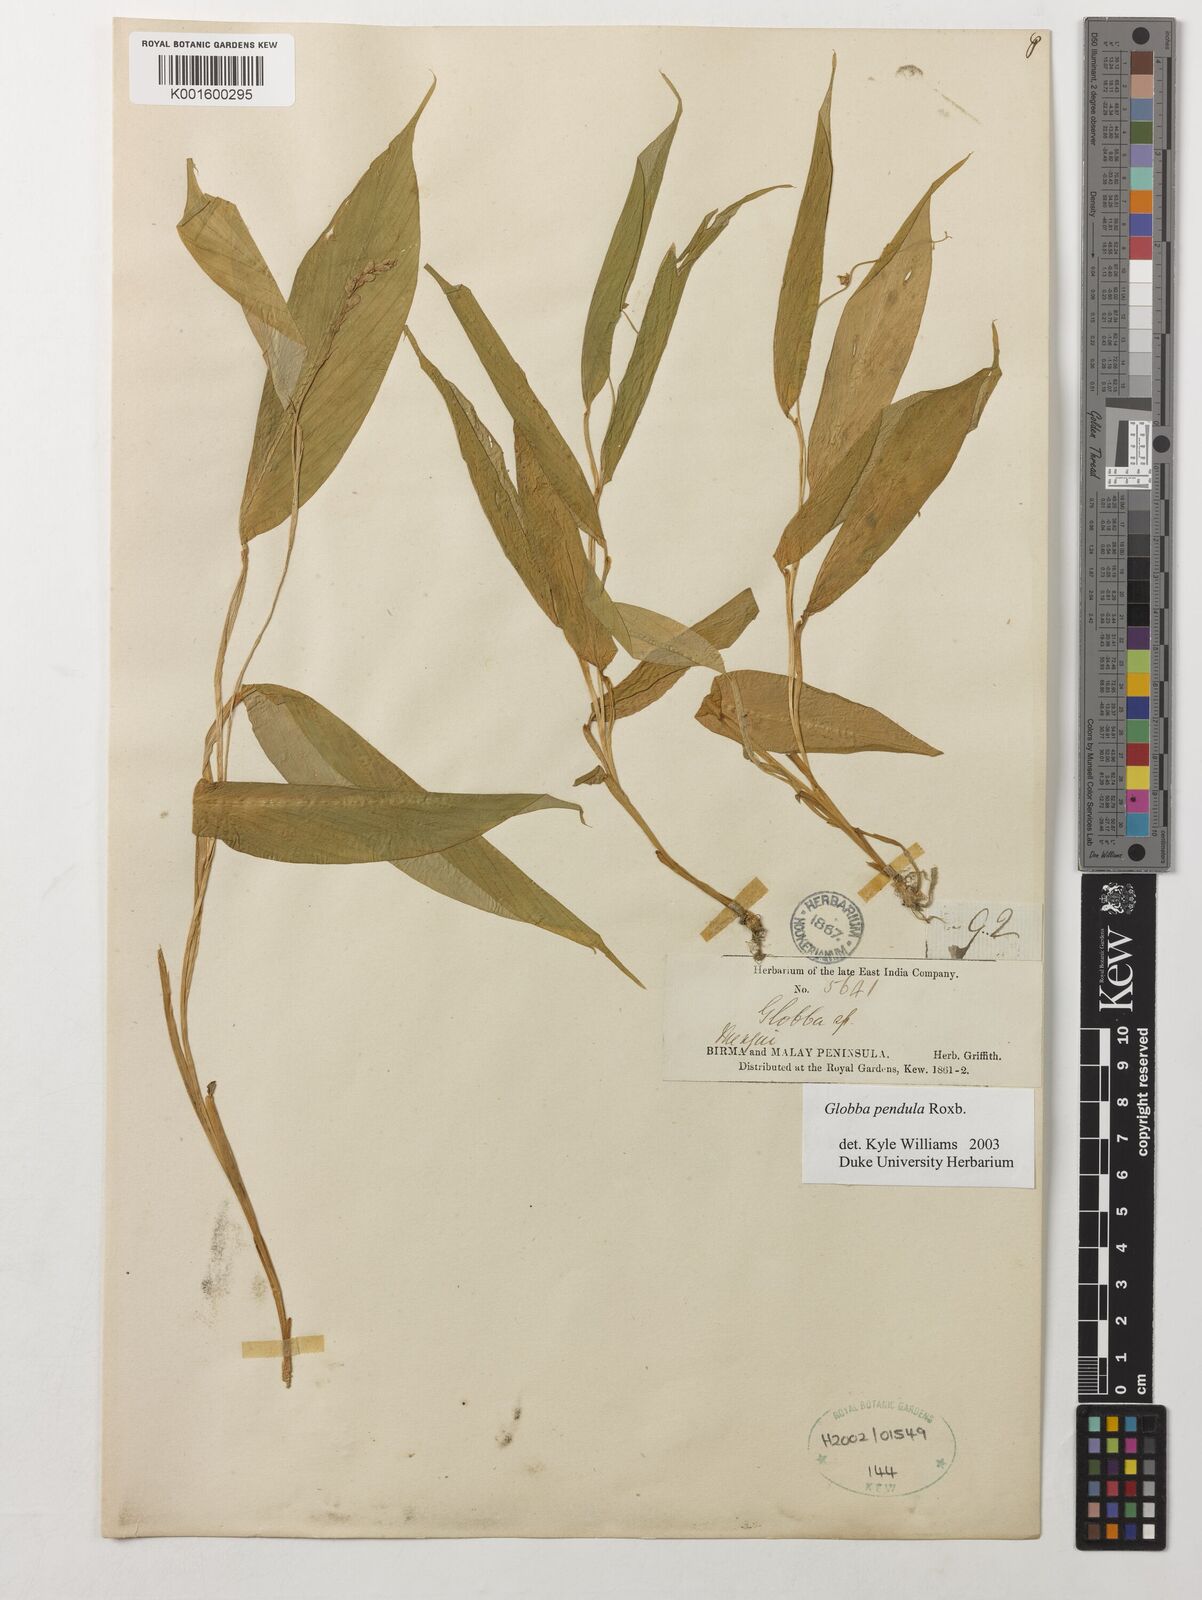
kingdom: Plantae
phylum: Tracheophyta
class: Liliopsida
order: Zingiberales
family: Zingiberaceae
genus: Globba
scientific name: Globba pendula
